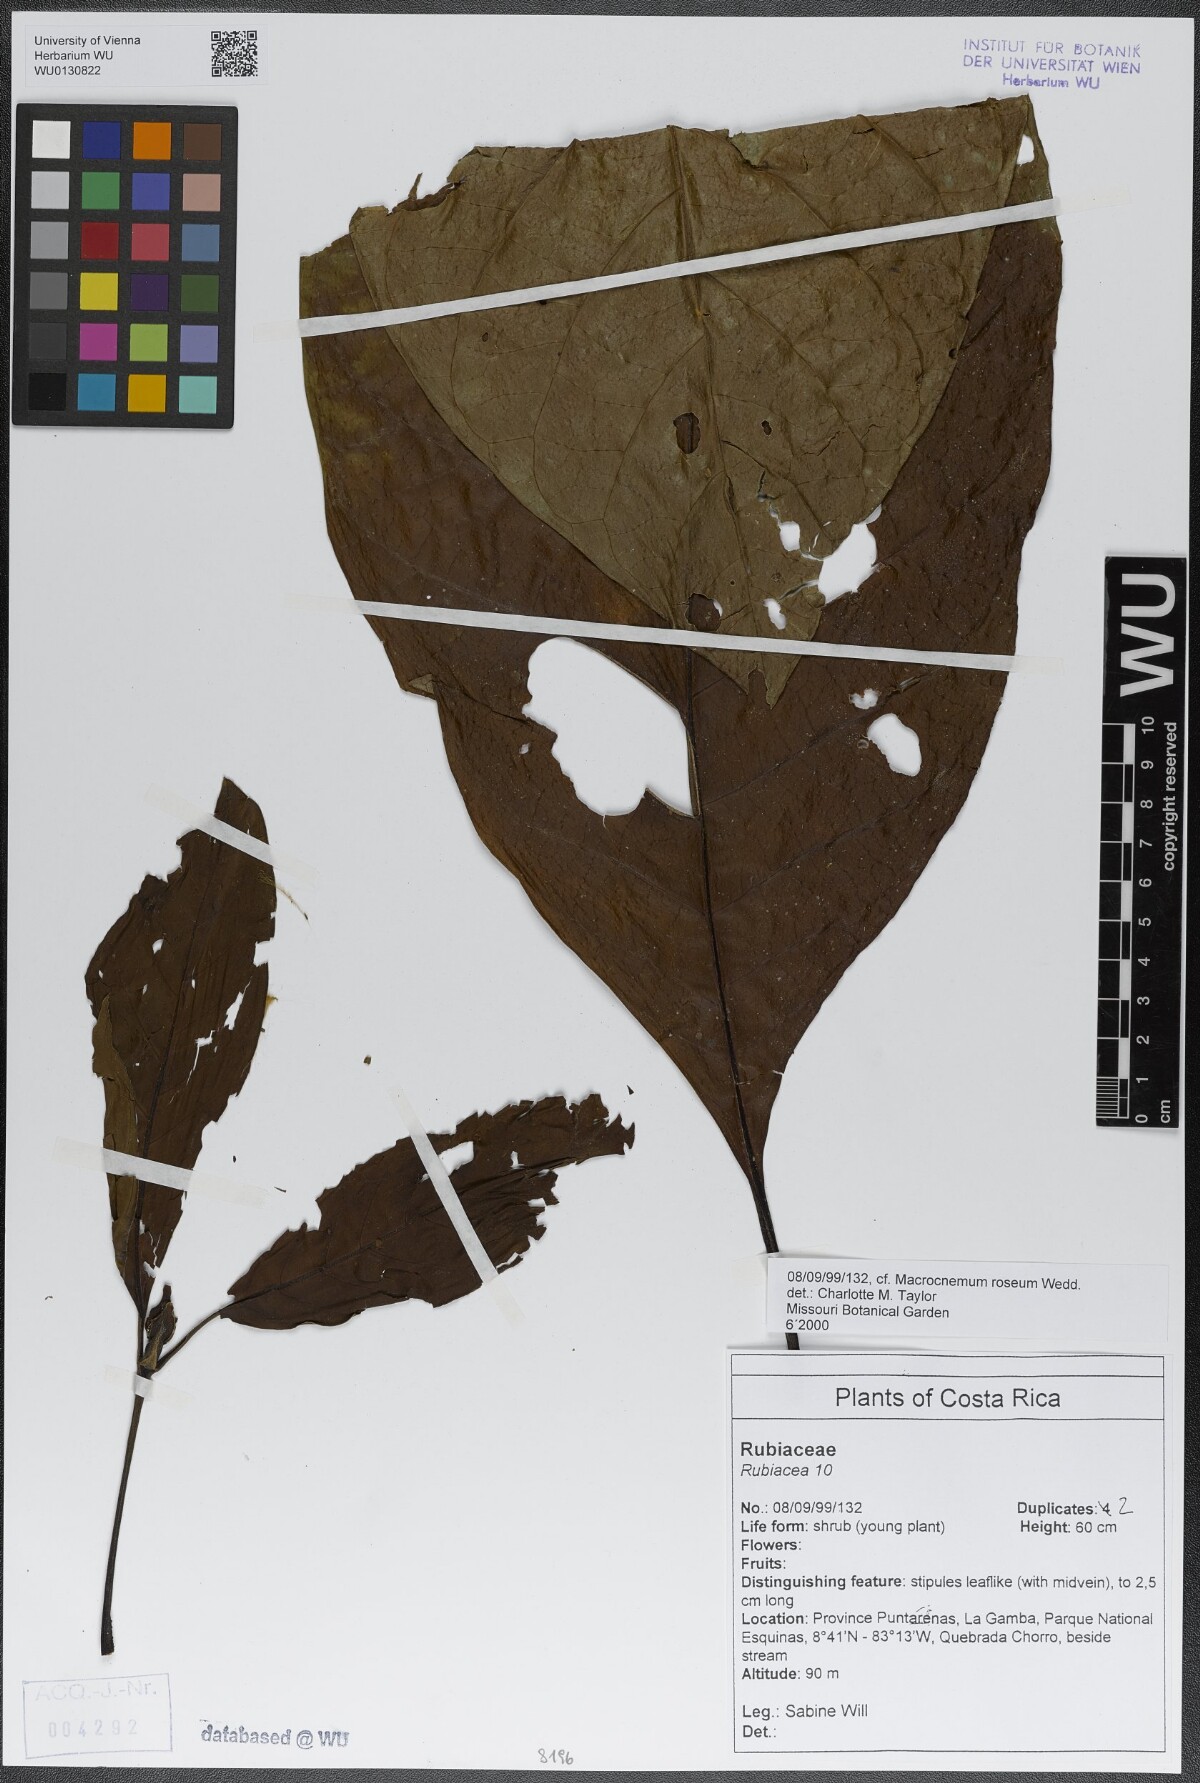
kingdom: Plantae
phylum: Tracheophyta
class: Magnoliopsida
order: Gentianales
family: Rubiaceae
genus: Macrocnemum
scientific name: Macrocnemum roseum
